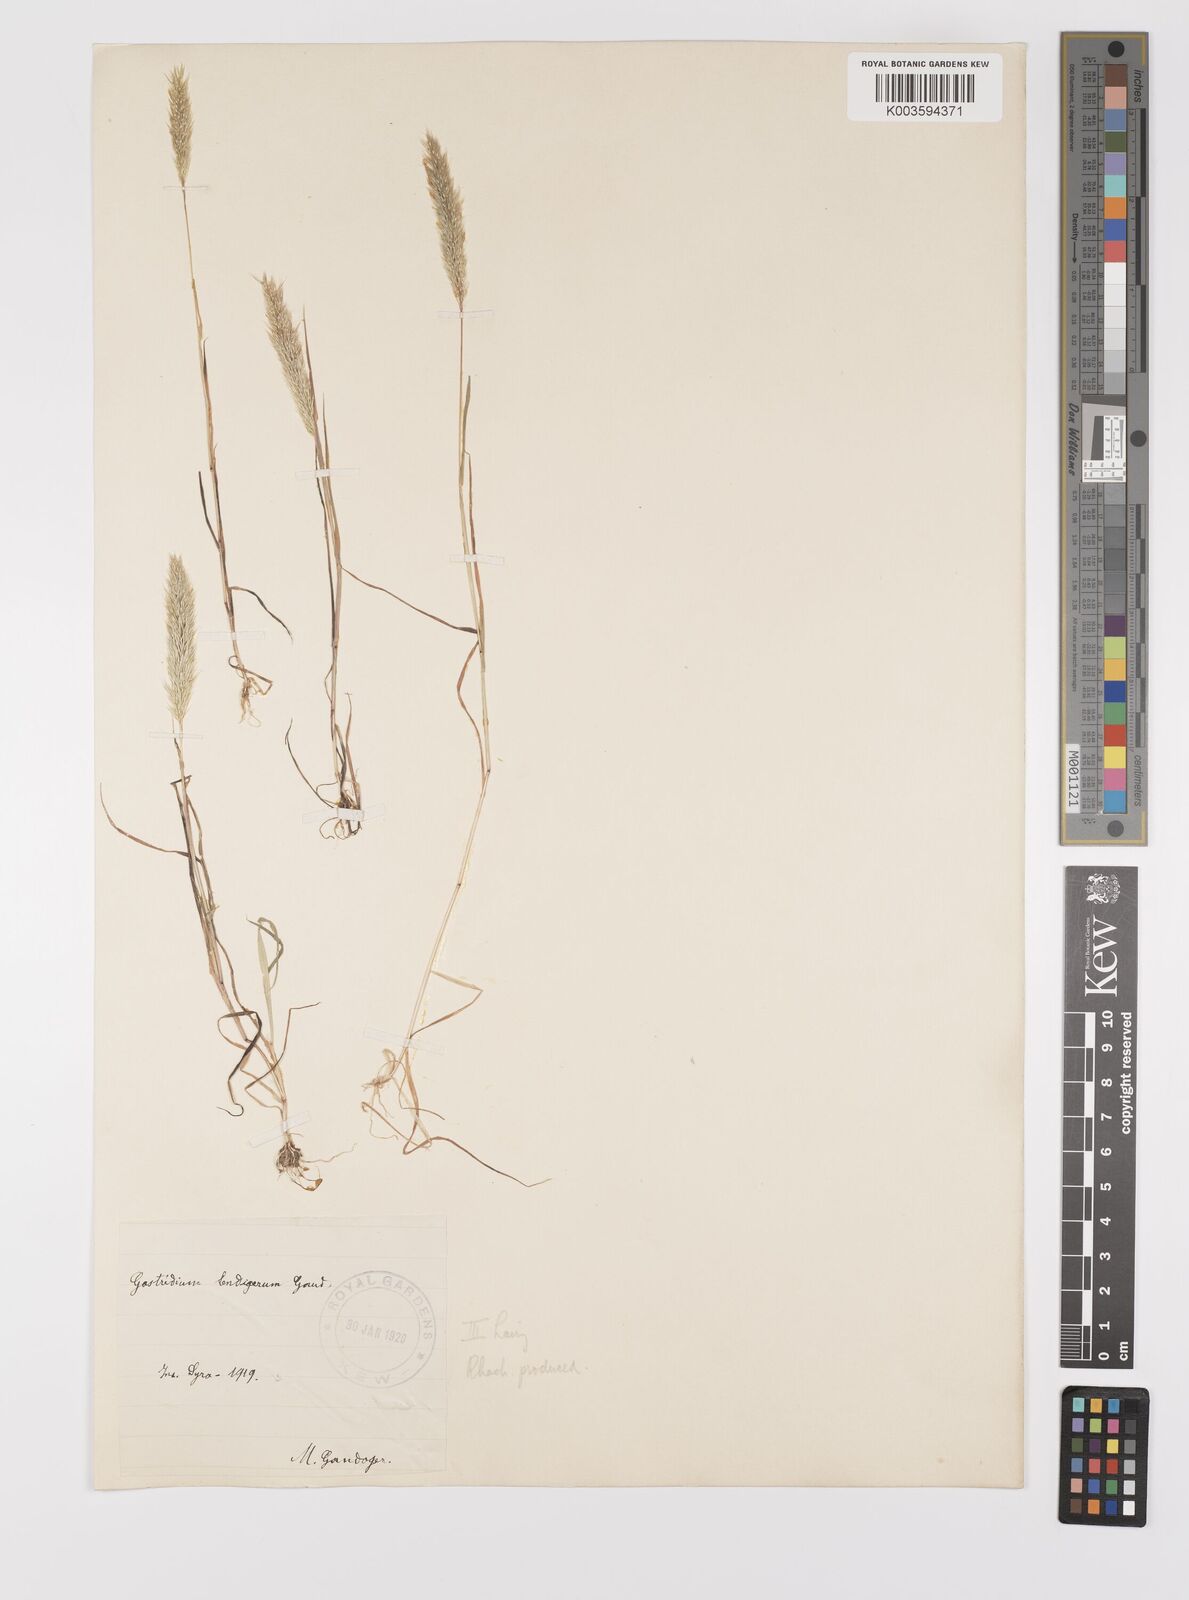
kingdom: Plantae
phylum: Tracheophyta
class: Liliopsida
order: Poales
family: Poaceae
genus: Gastridium
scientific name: Gastridium phleoides
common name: Nit grass
